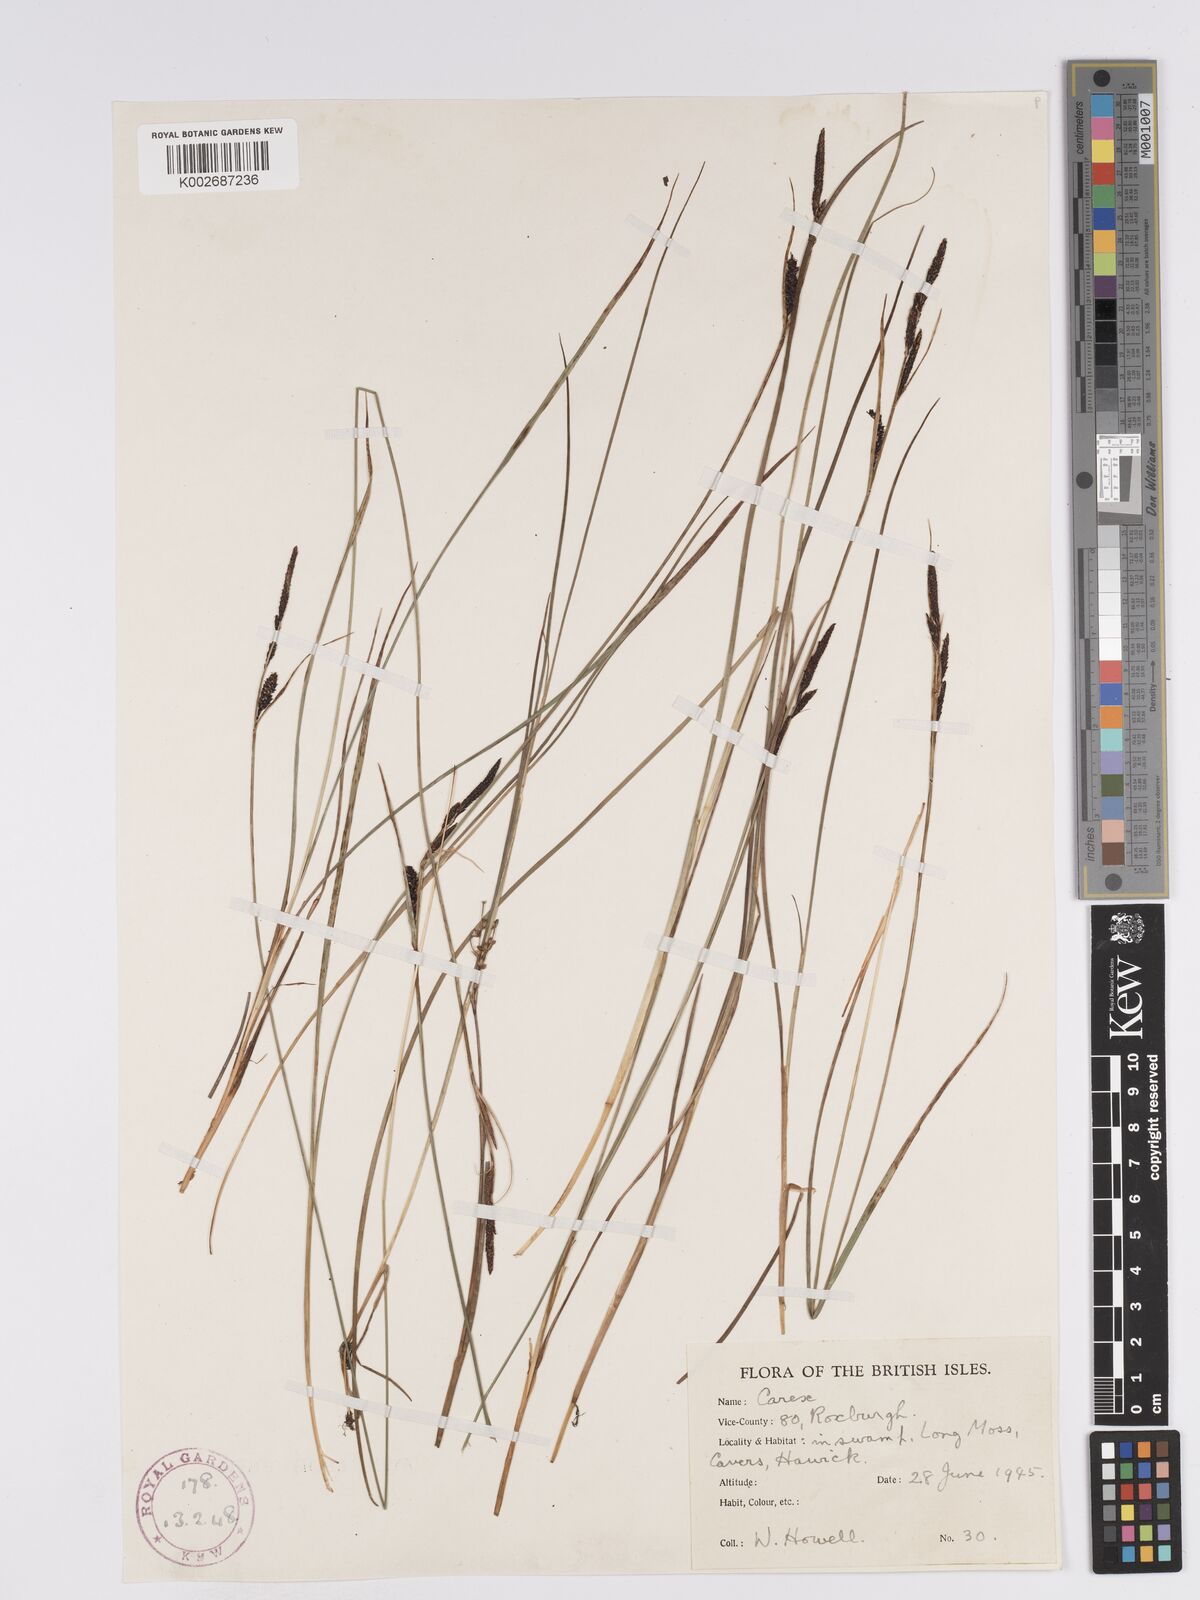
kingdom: Plantae
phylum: Tracheophyta
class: Liliopsida
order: Poales
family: Cyperaceae
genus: Carex
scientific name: Carex nigra
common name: Common sedge
